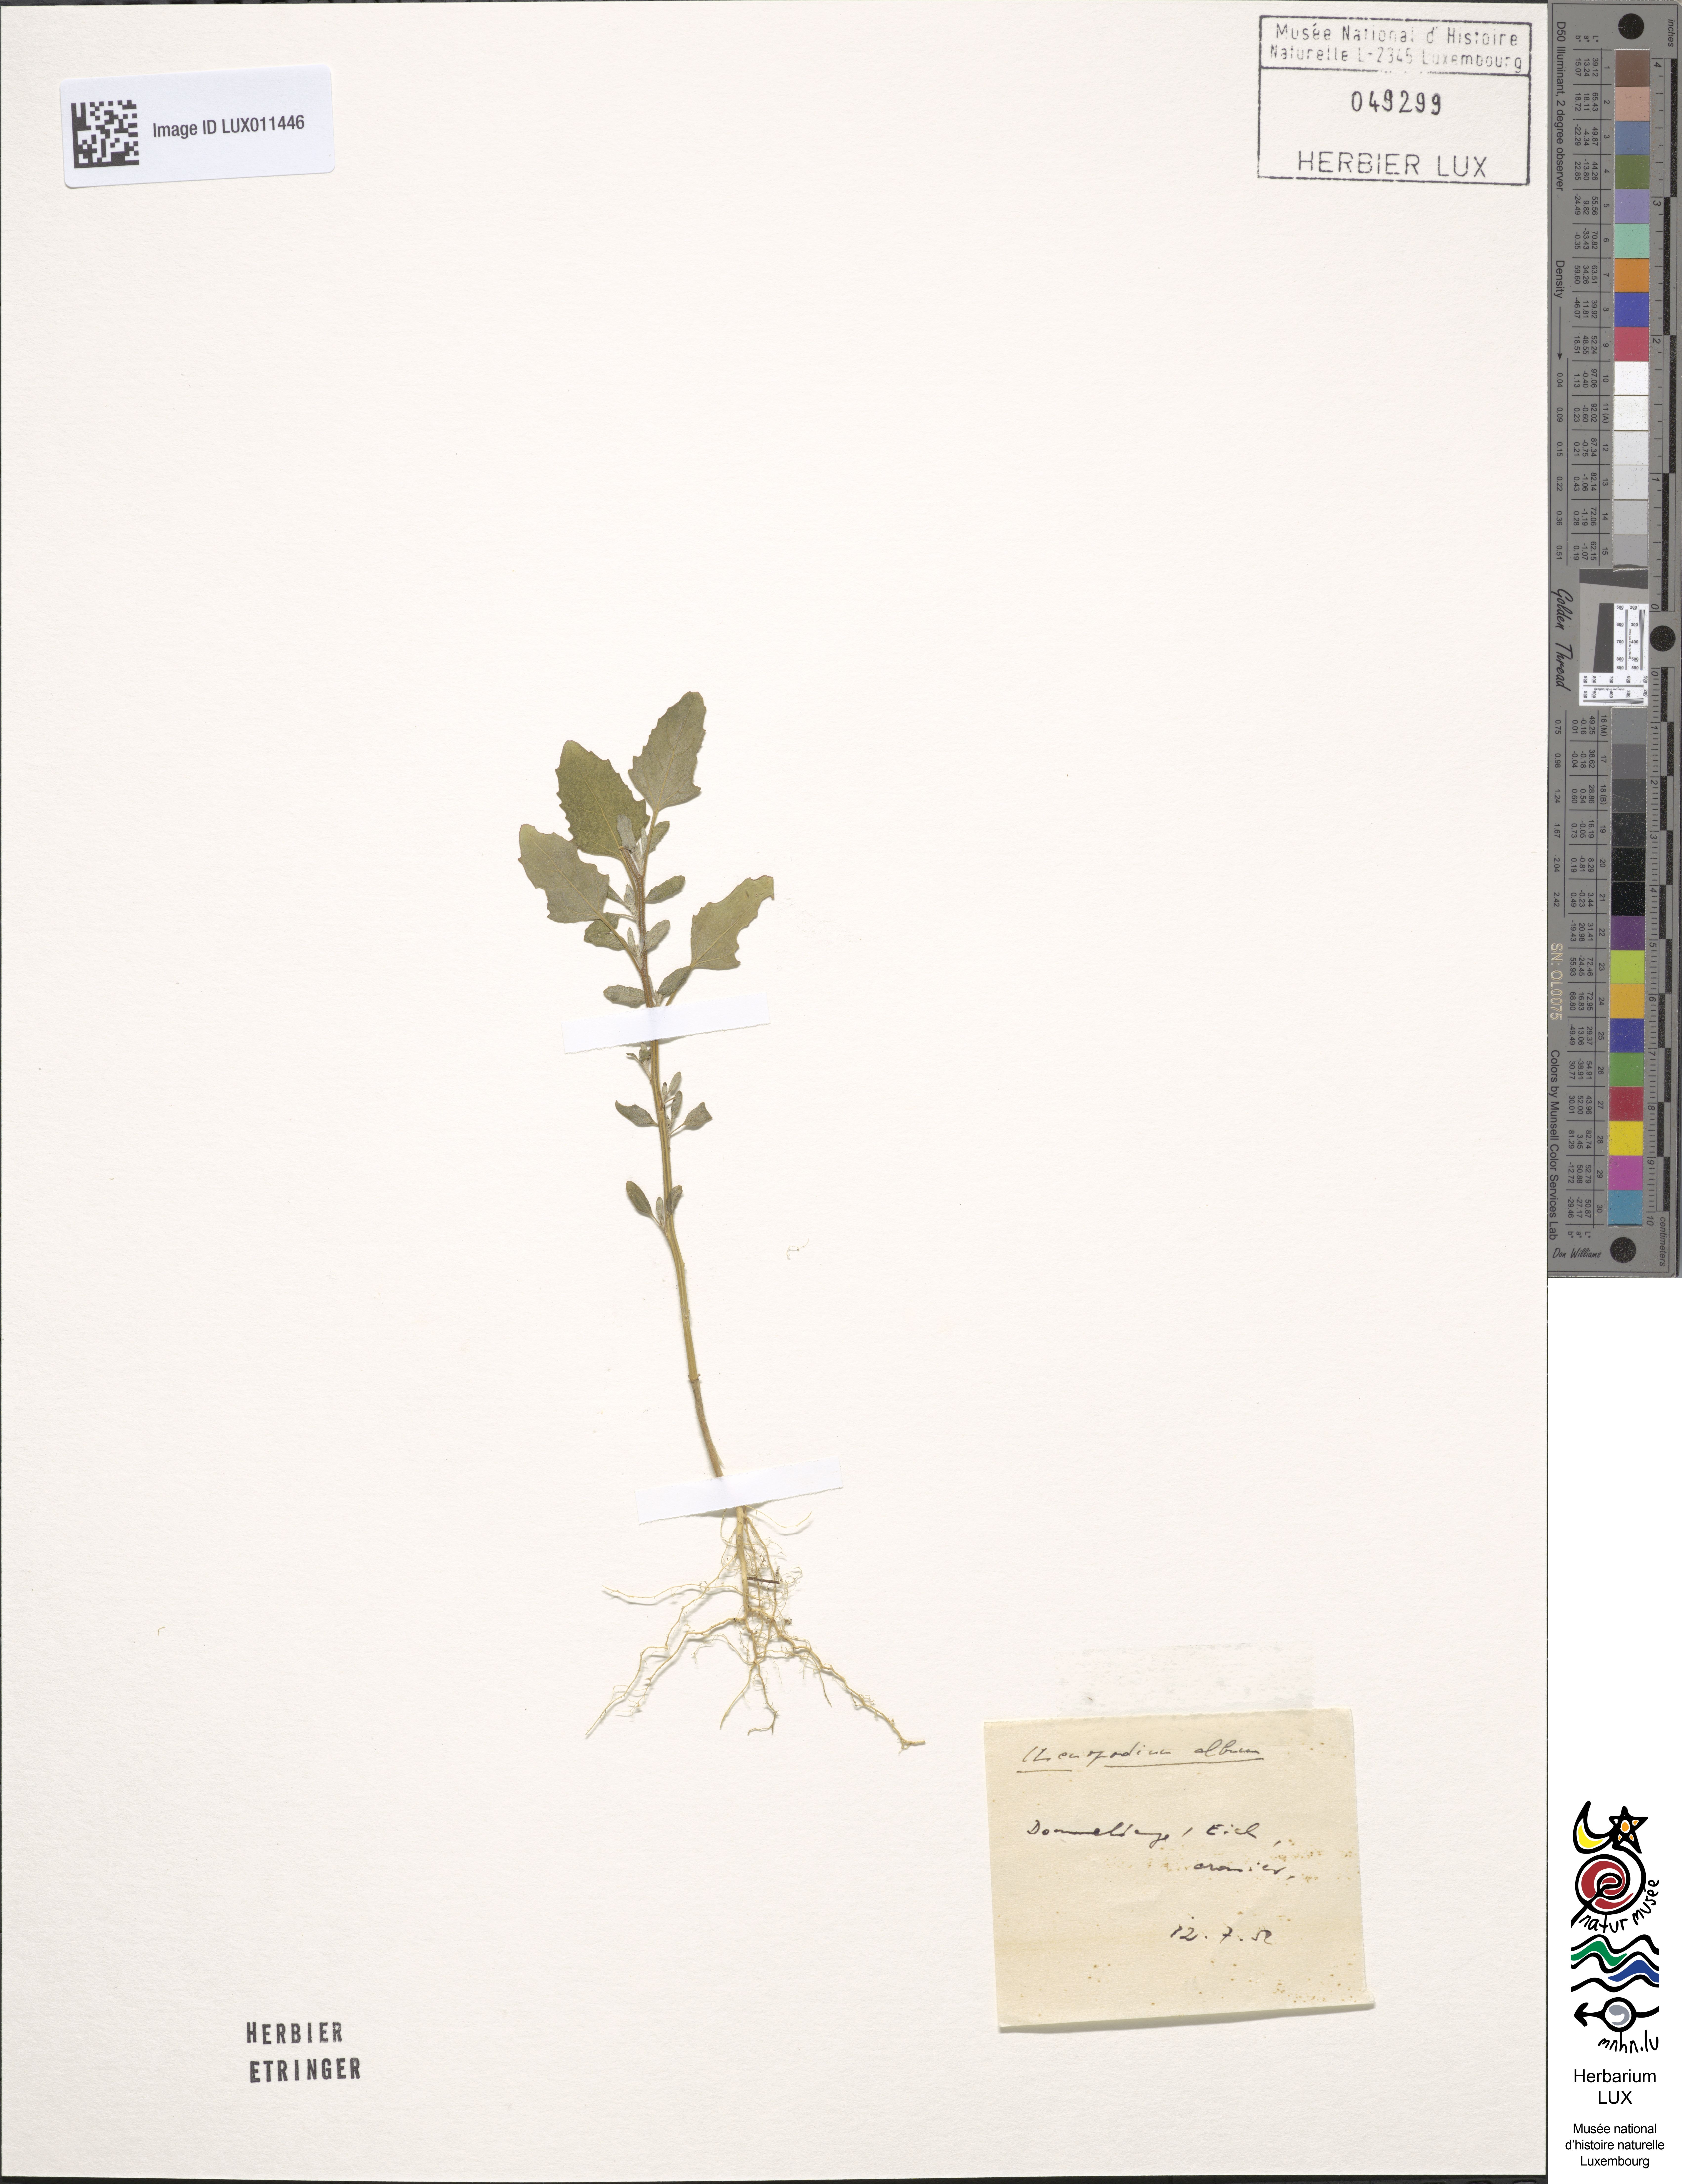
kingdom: Plantae
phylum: Tracheophyta
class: Magnoliopsida
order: Caryophyllales
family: Amaranthaceae
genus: Chenopodium
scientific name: Chenopodium album
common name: Fat-hen
